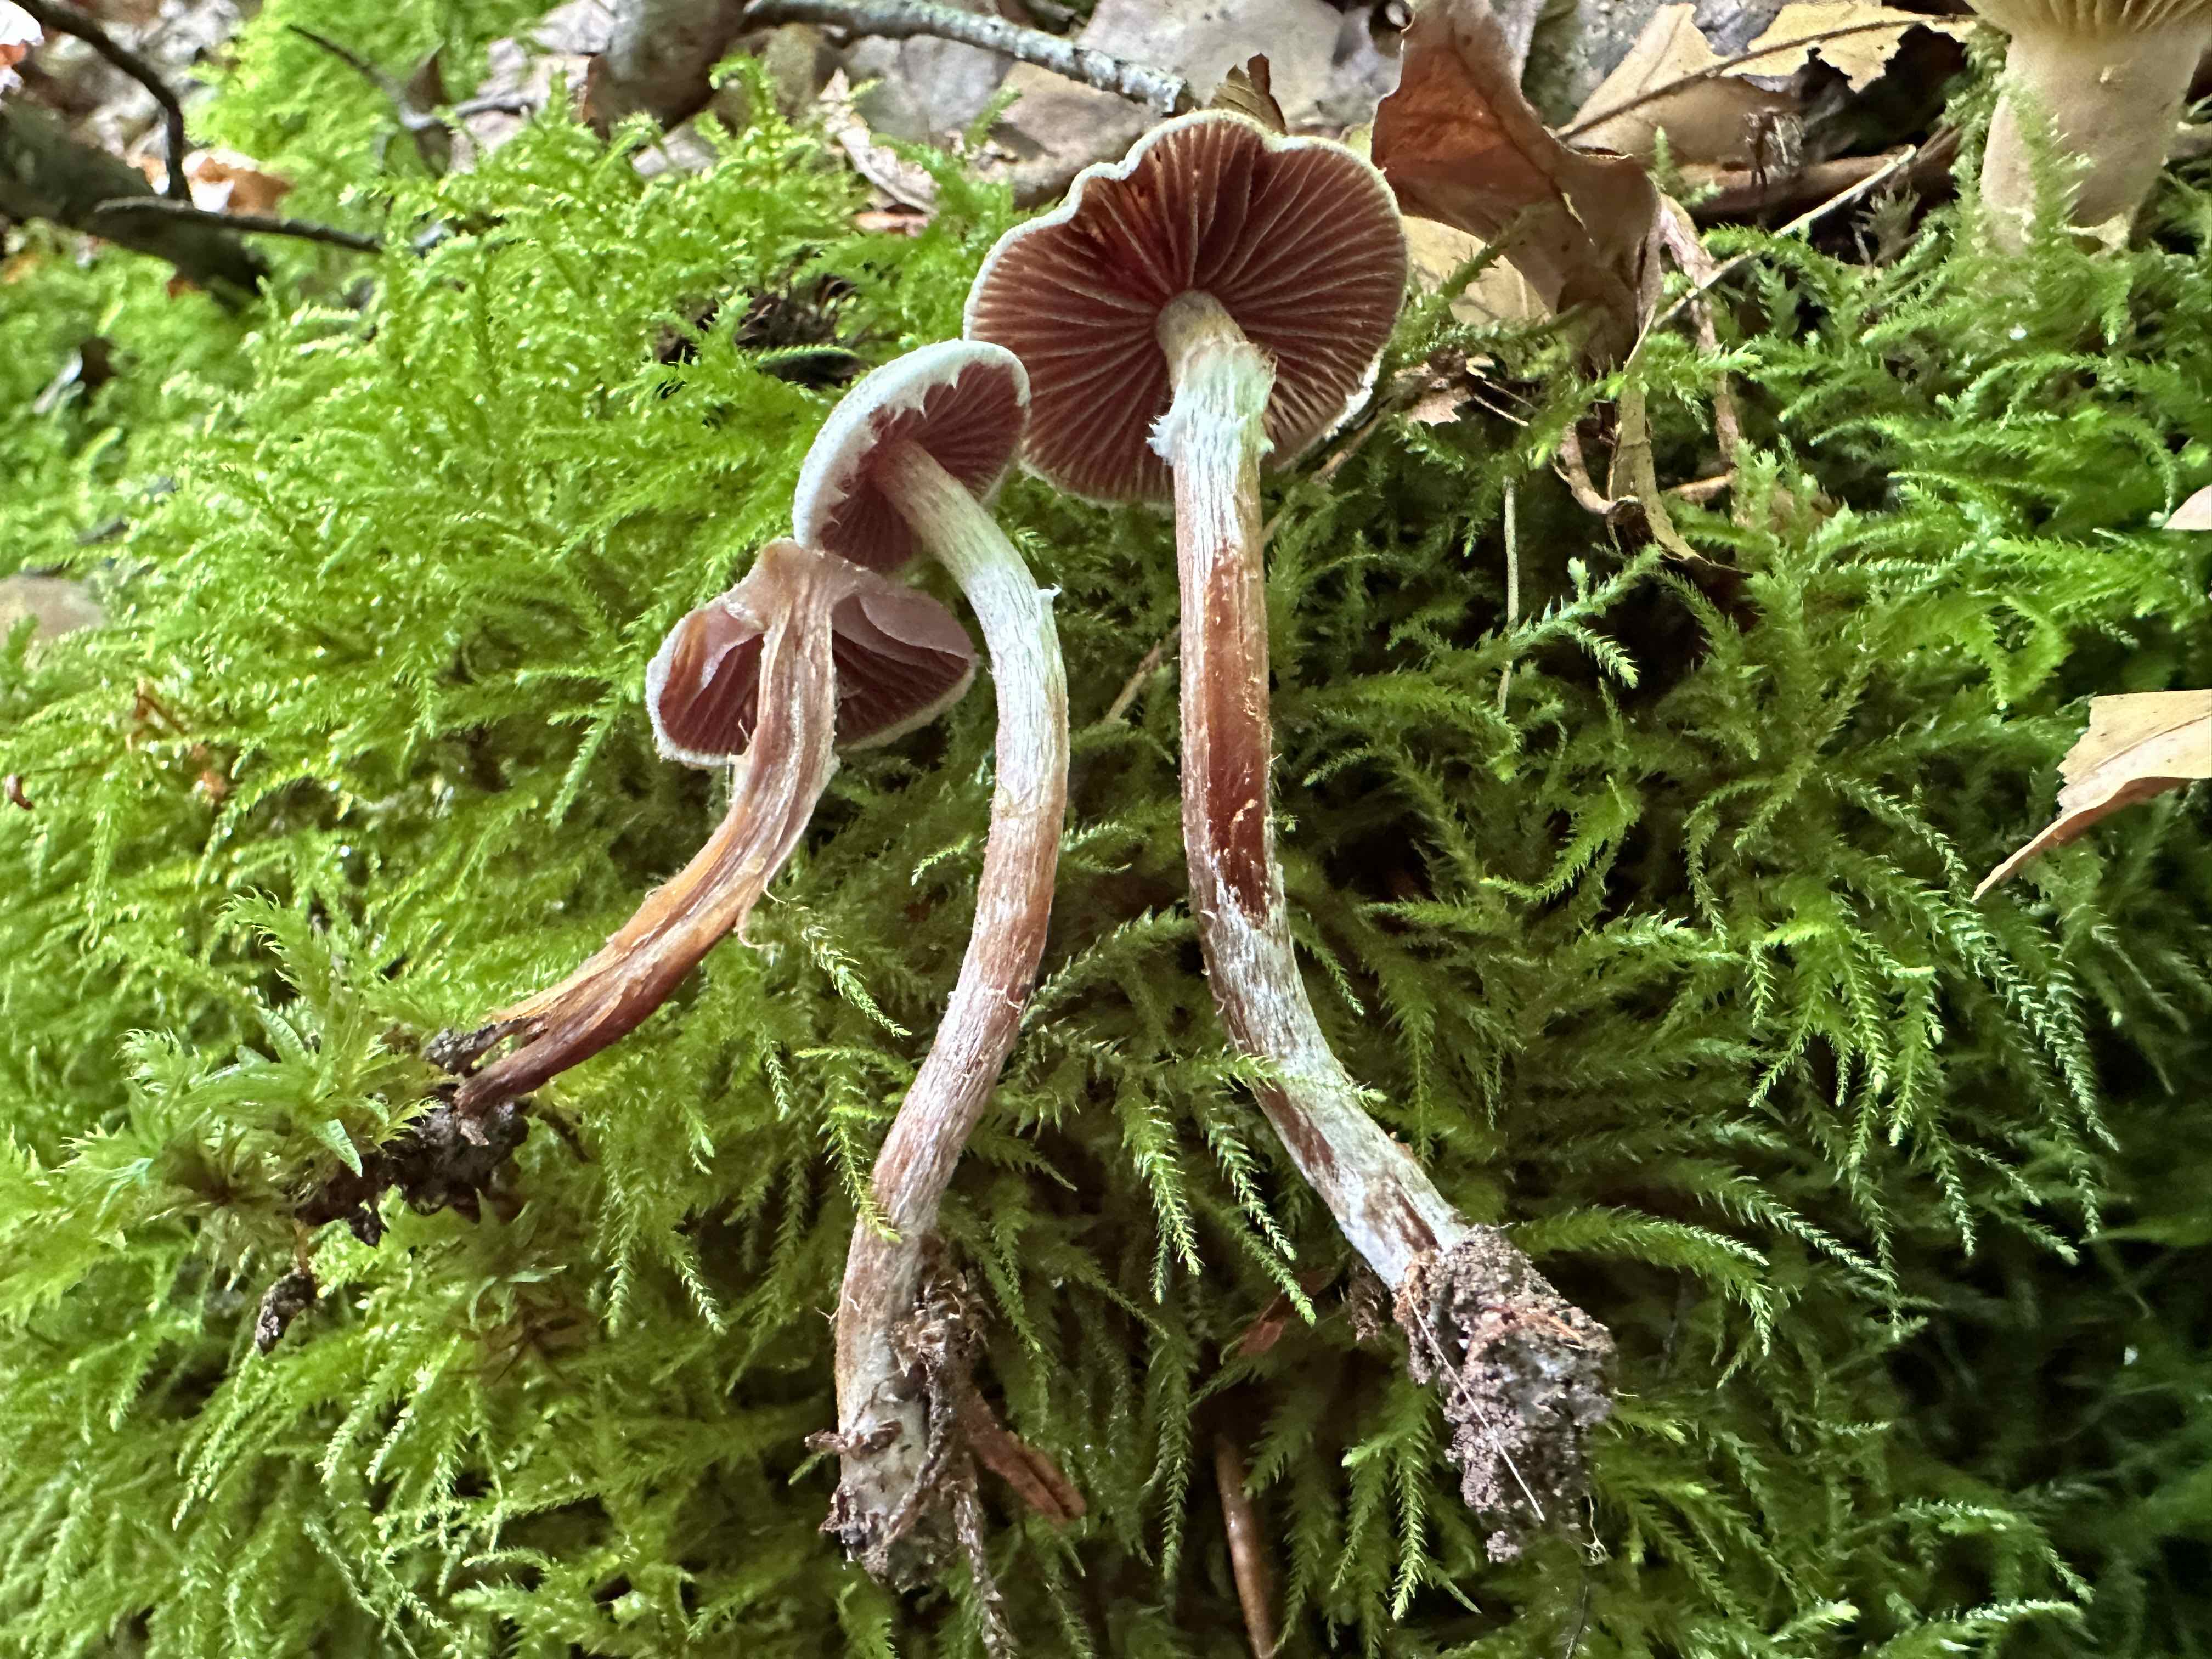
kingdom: Fungi
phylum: Basidiomycota
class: Agaricomycetes
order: Agaricales
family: Cortinariaceae
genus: Cortinarius
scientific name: Cortinarius
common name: pelargonie-slørhat
